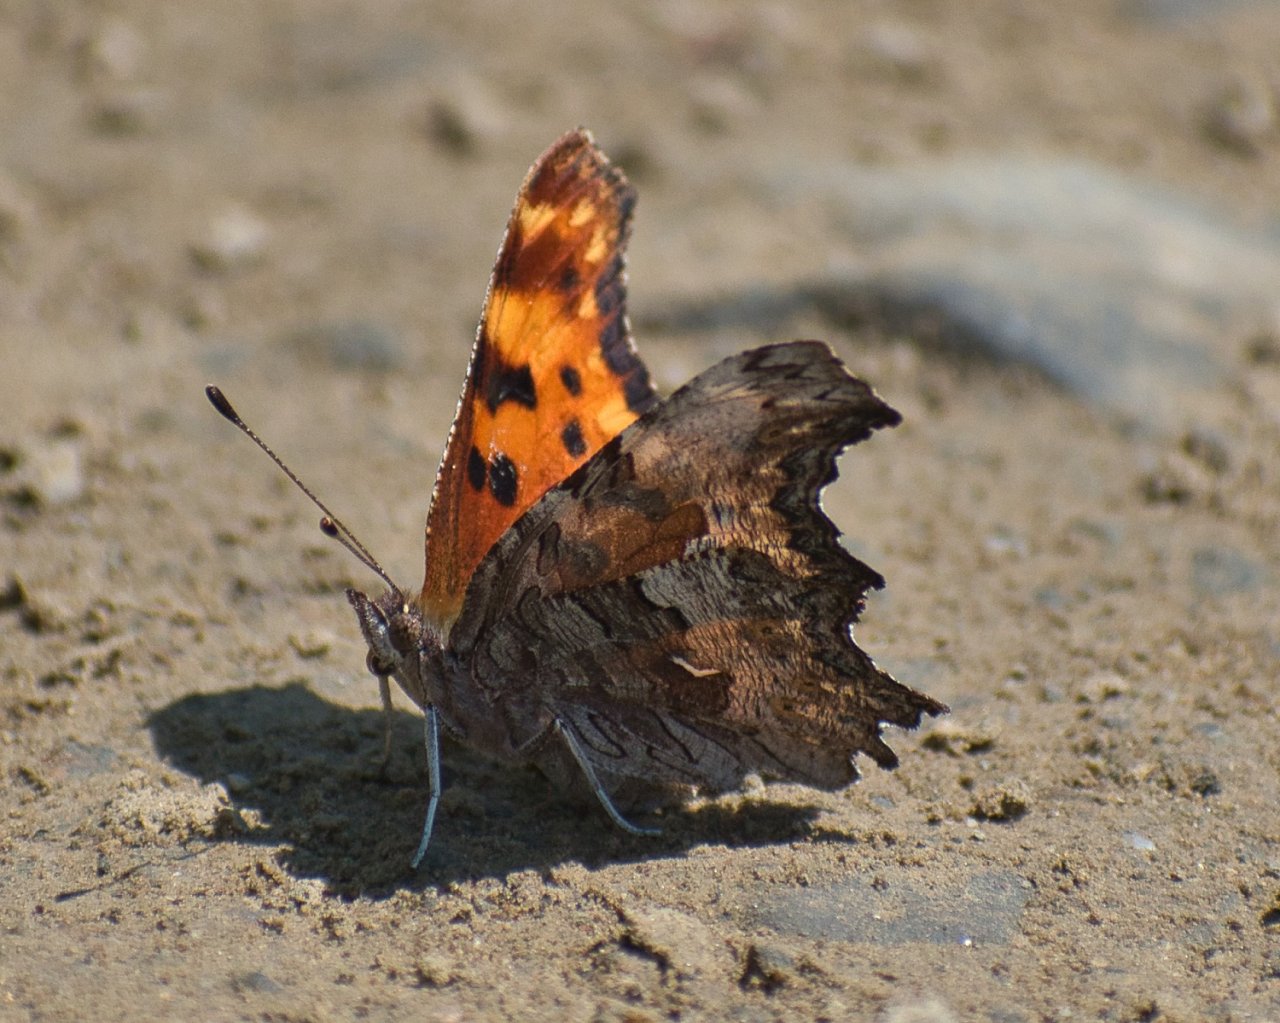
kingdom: Animalia
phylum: Arthropoda
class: Insecta
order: Lepidoptera
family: Nymphalidae
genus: Polygonia
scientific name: Polygonia gracilis
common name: Hoary Comma
